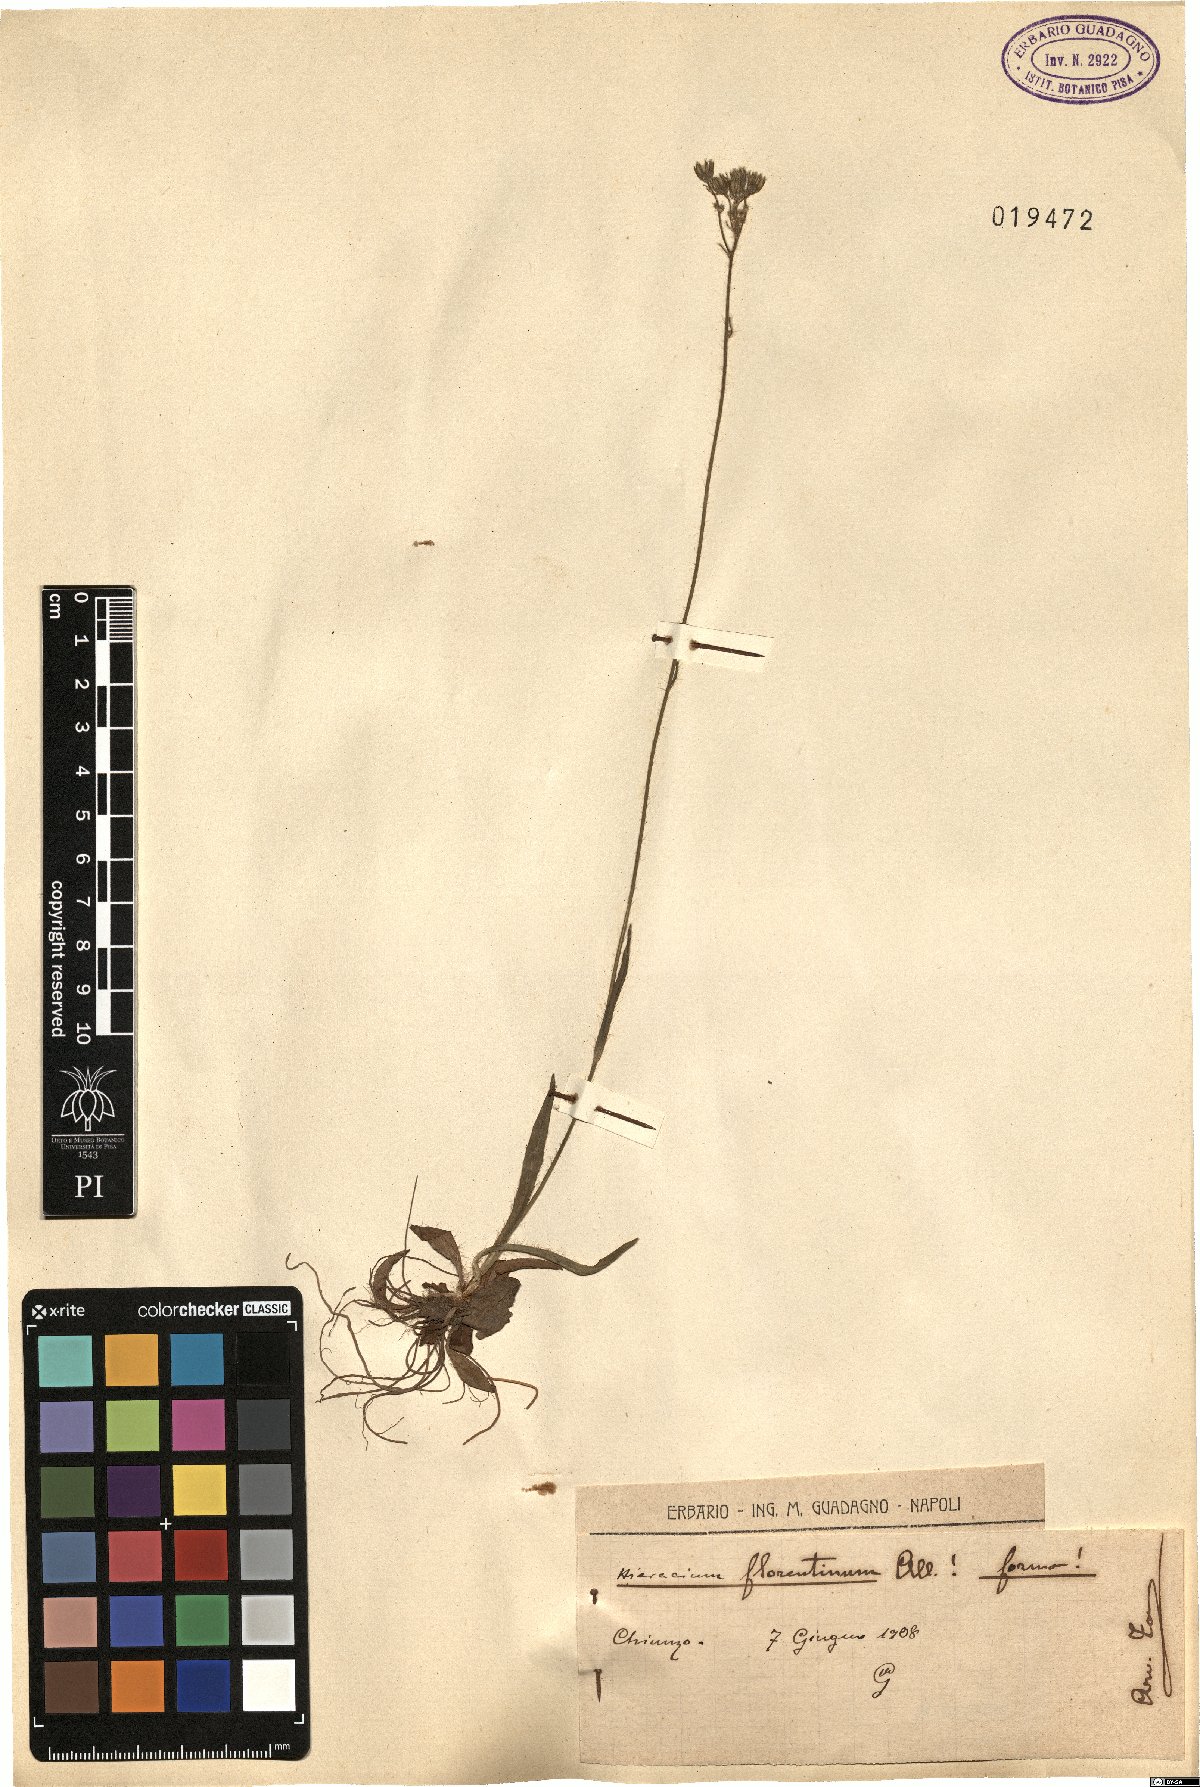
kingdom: Plantae
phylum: Tracheophyta
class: Magnoliopsida
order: Asterales
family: Asteraceae
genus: Pilosella
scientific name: Pilosella piloselloides
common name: Glaucous king-devil
